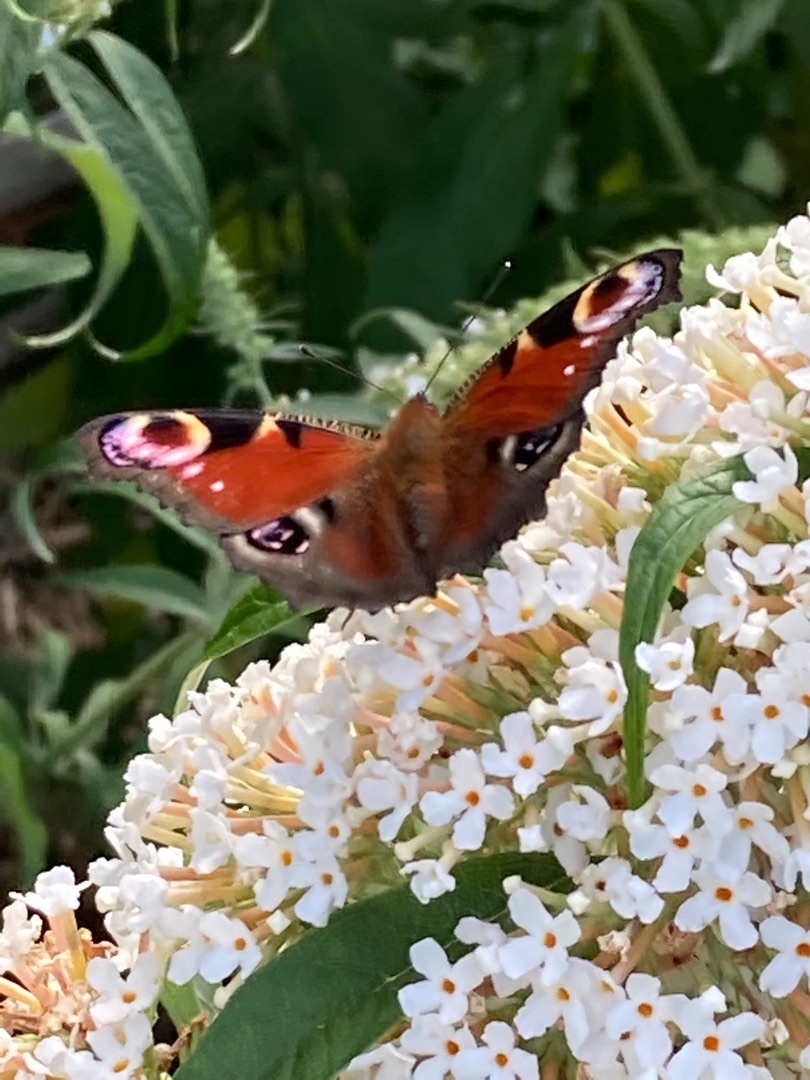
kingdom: Animalia
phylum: Arthropoda
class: Insecta
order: Lepidoptera
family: Nymphalidae
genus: Aglais
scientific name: Aglais io
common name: Dagpåfugleøje
